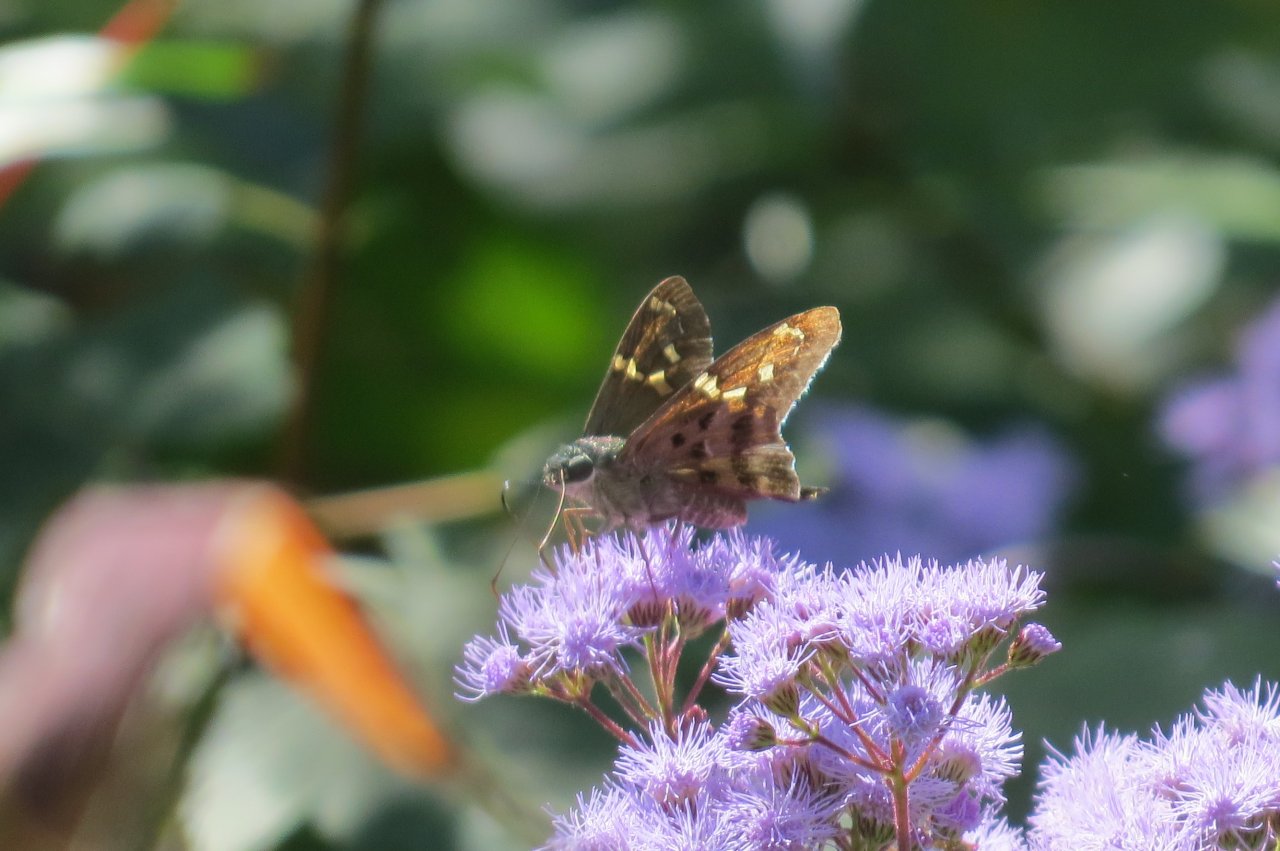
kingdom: Animalia
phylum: Arthropoda
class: Insecta
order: Lepidoptera
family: Hesperiidae
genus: Urbanus
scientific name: Urbanus proteus
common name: Long-tailed Skipper
